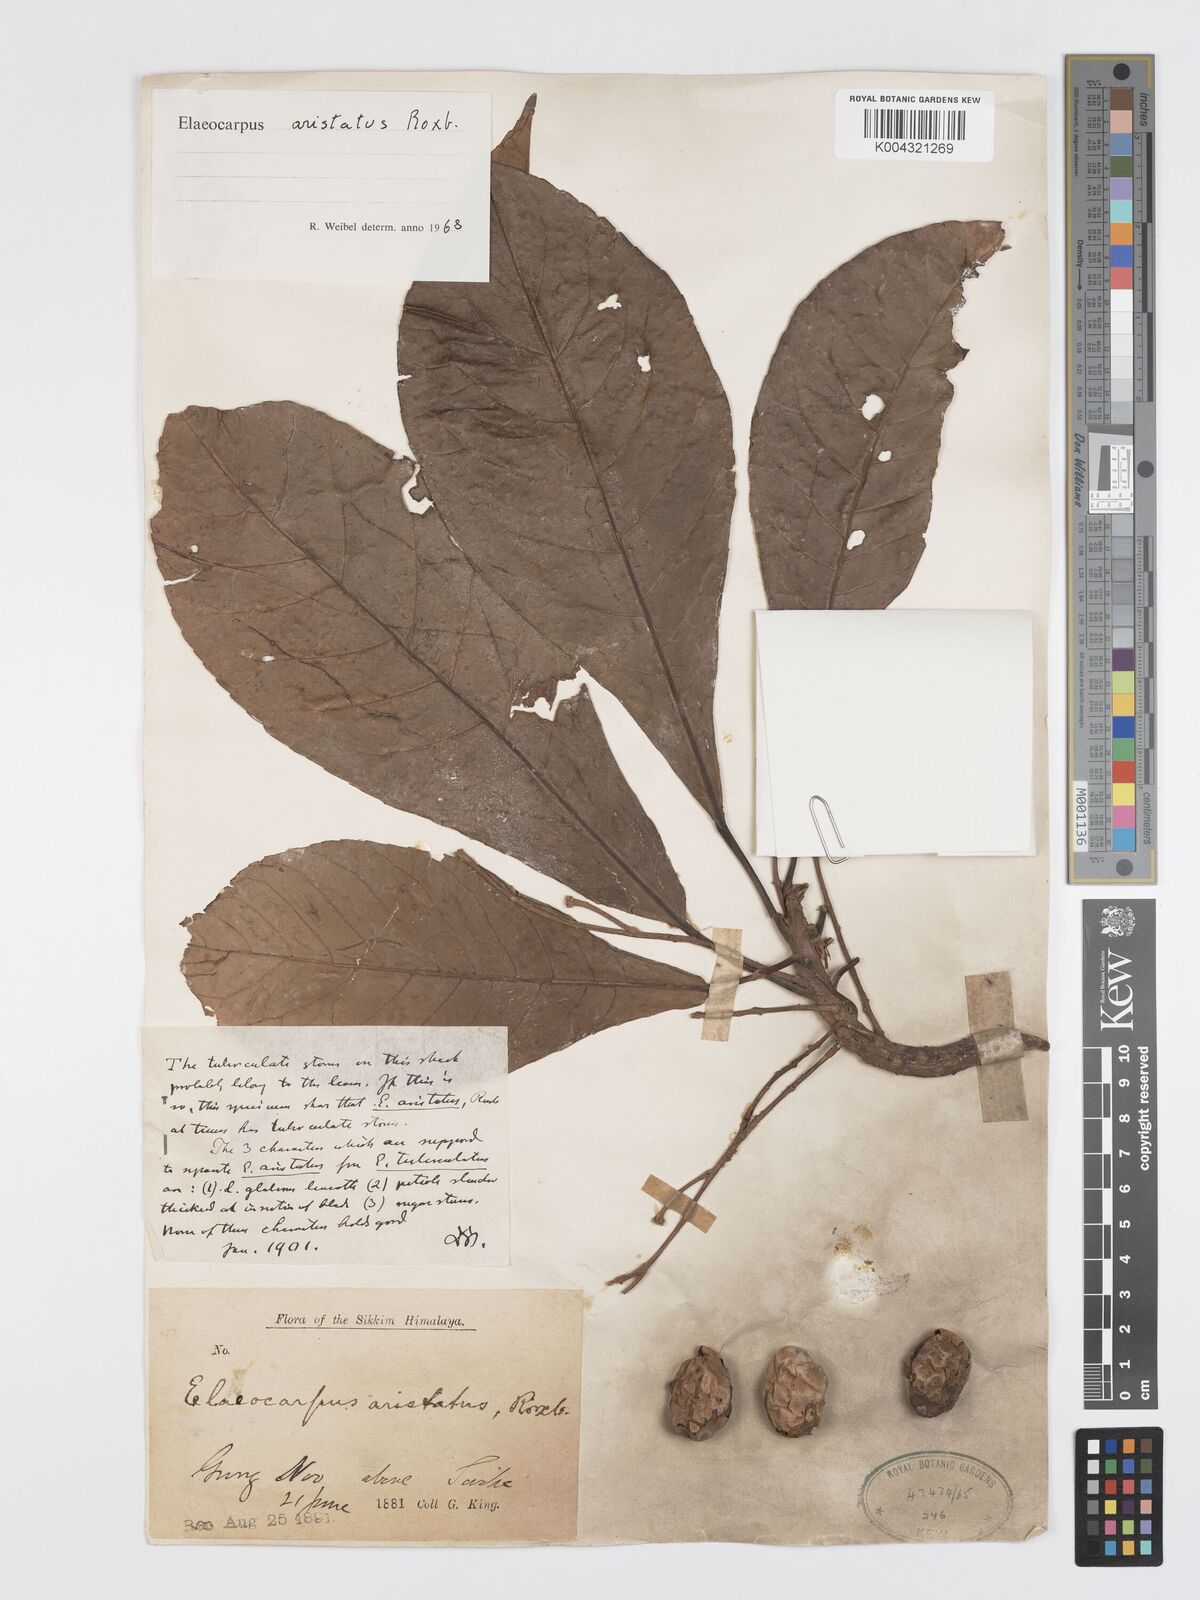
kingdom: Plantae
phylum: Tracheophyta
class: Magnoliopsida
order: Oxalidales
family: Elaeocarpaceae
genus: Elaeocarpus
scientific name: Elaeocarpus aristatus
